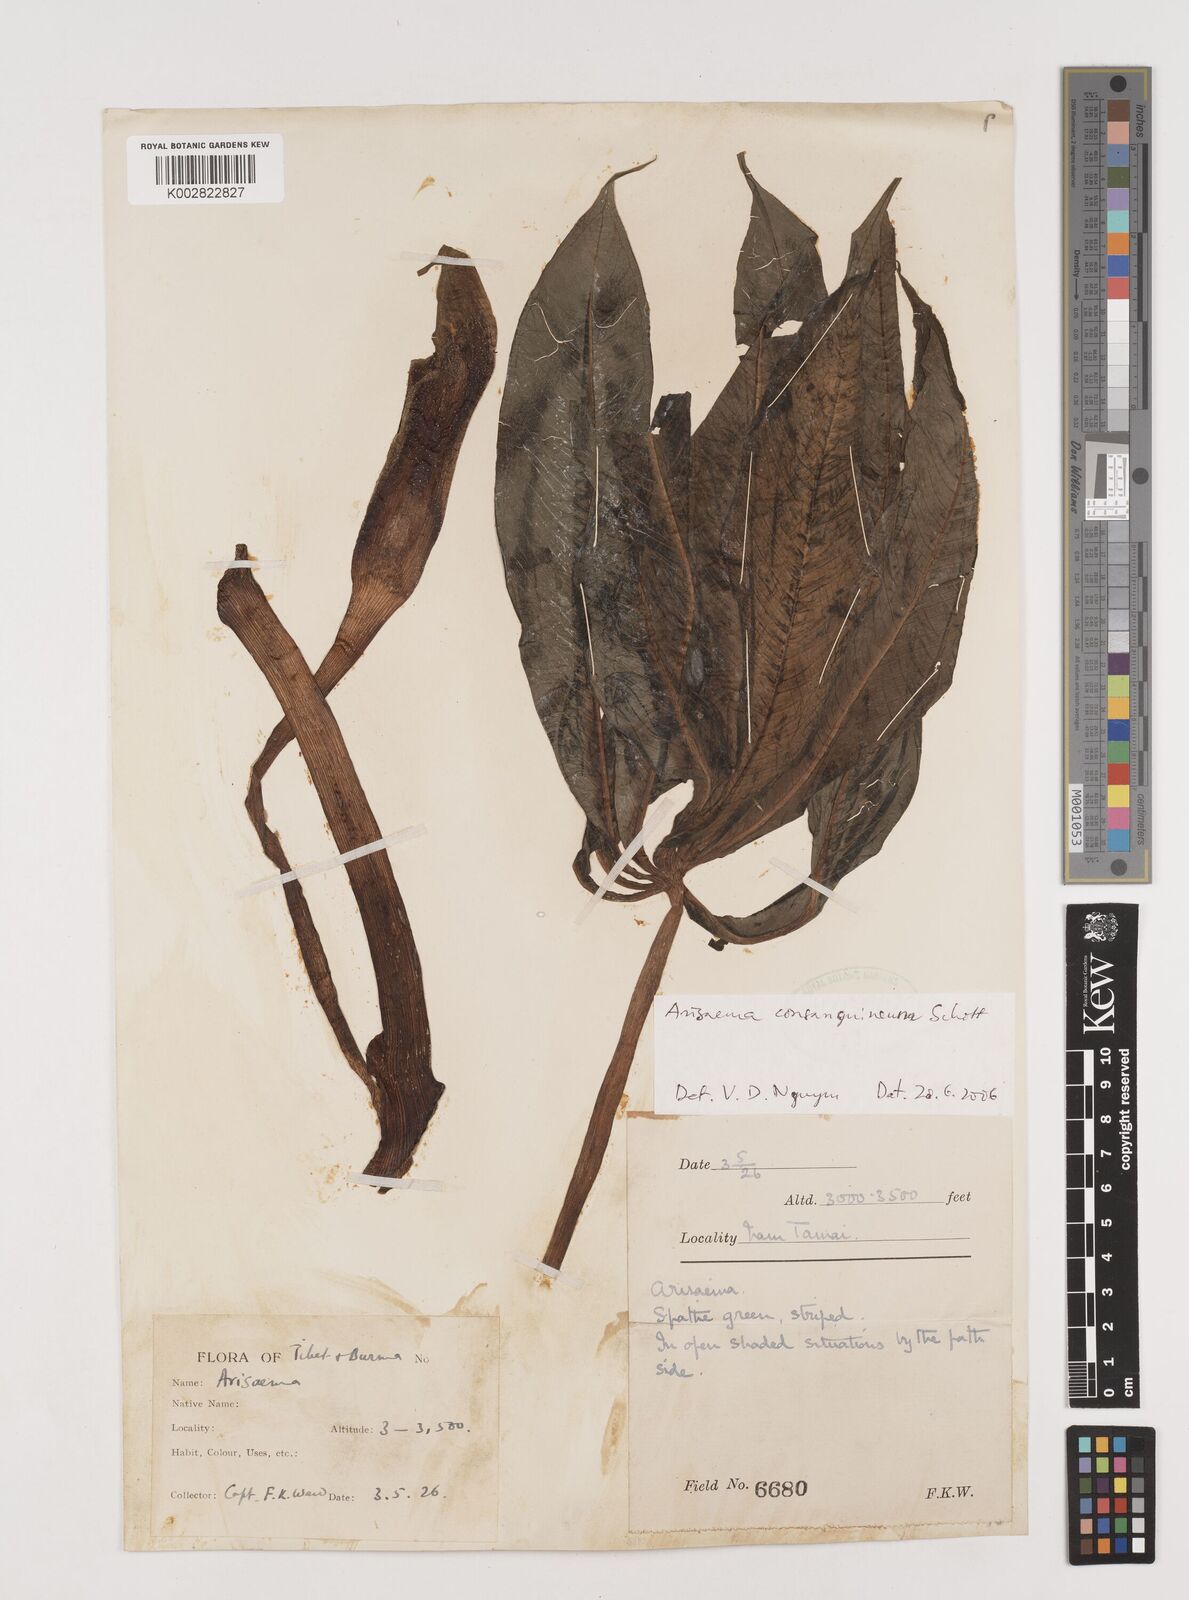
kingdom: Plantae
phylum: Tracheophyta
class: Liliopsida
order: Alismatales
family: Araceae
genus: Arisaema
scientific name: Arisaema consanguineum
